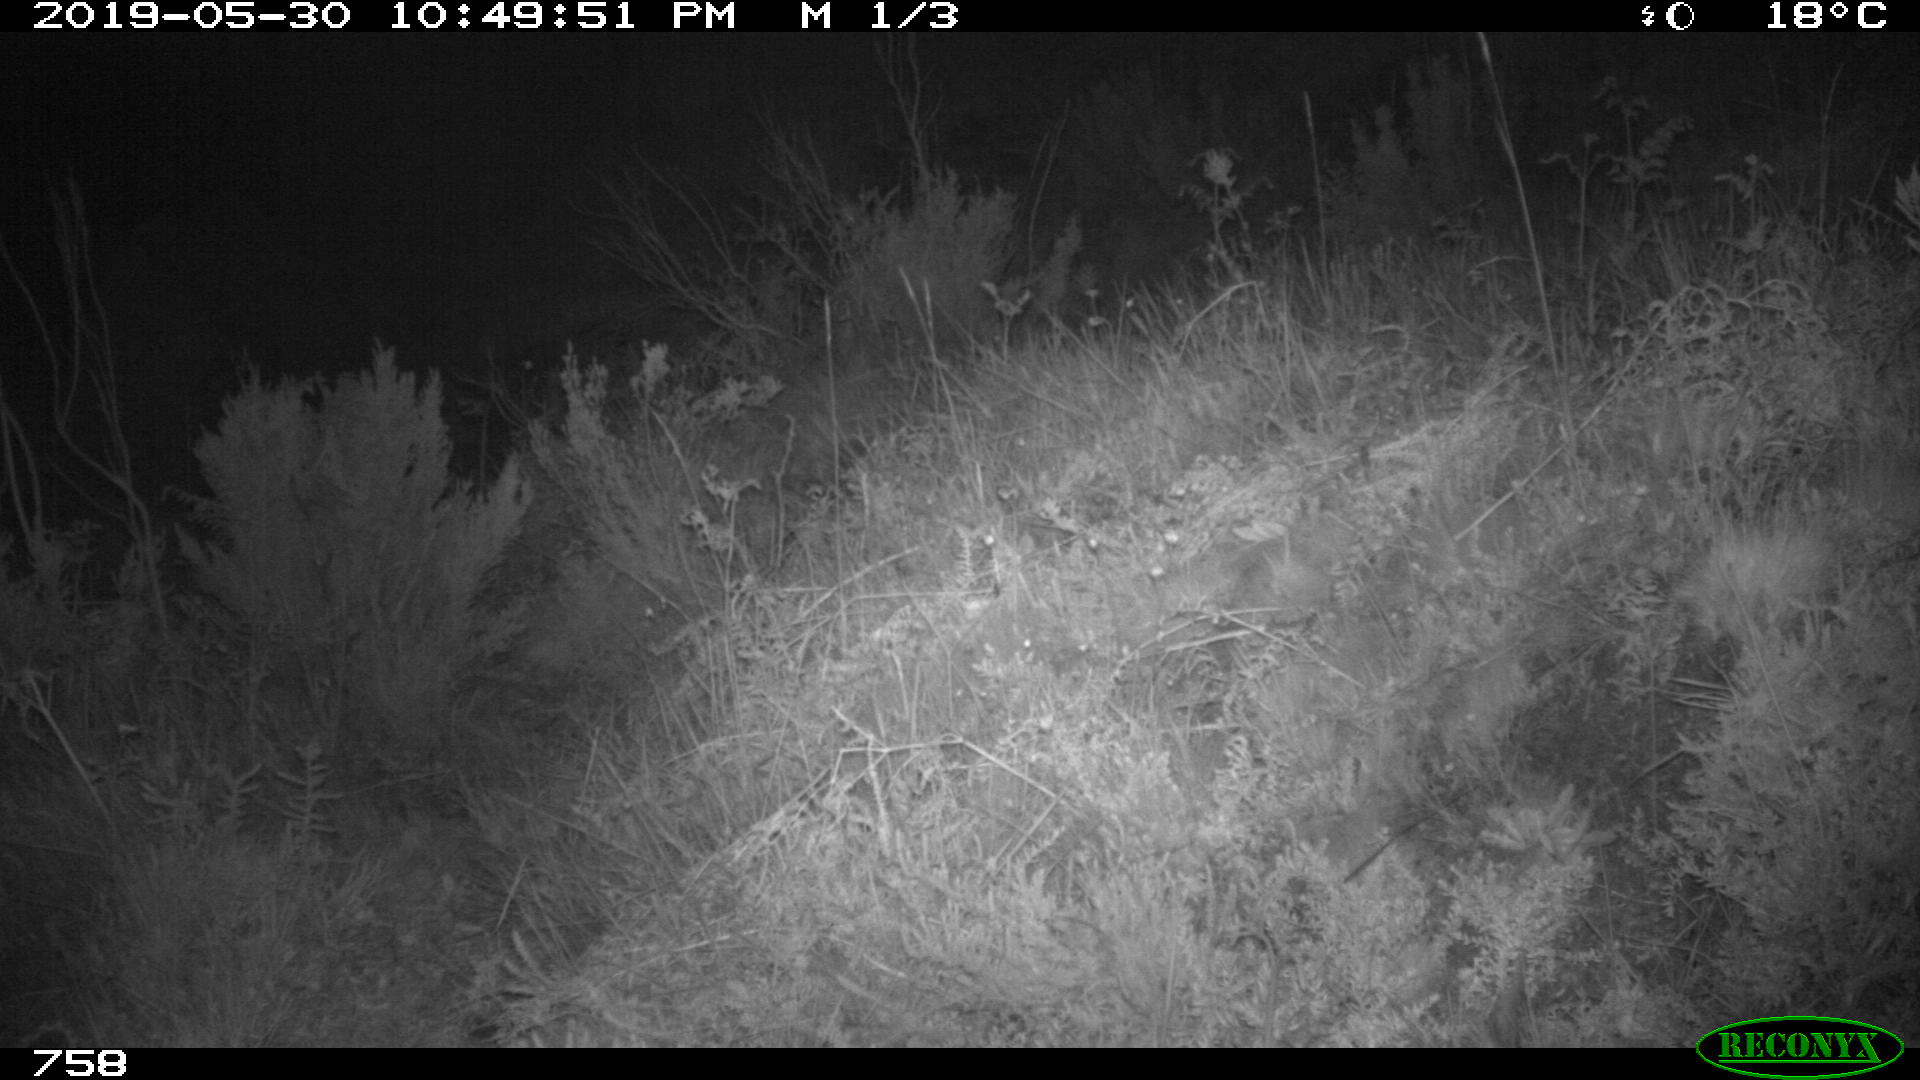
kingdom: Animalia
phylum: Chordata
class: Mammalia
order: Artiodactyla
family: Suidae
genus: Sus
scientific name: Sus scrofa
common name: Wild boar
